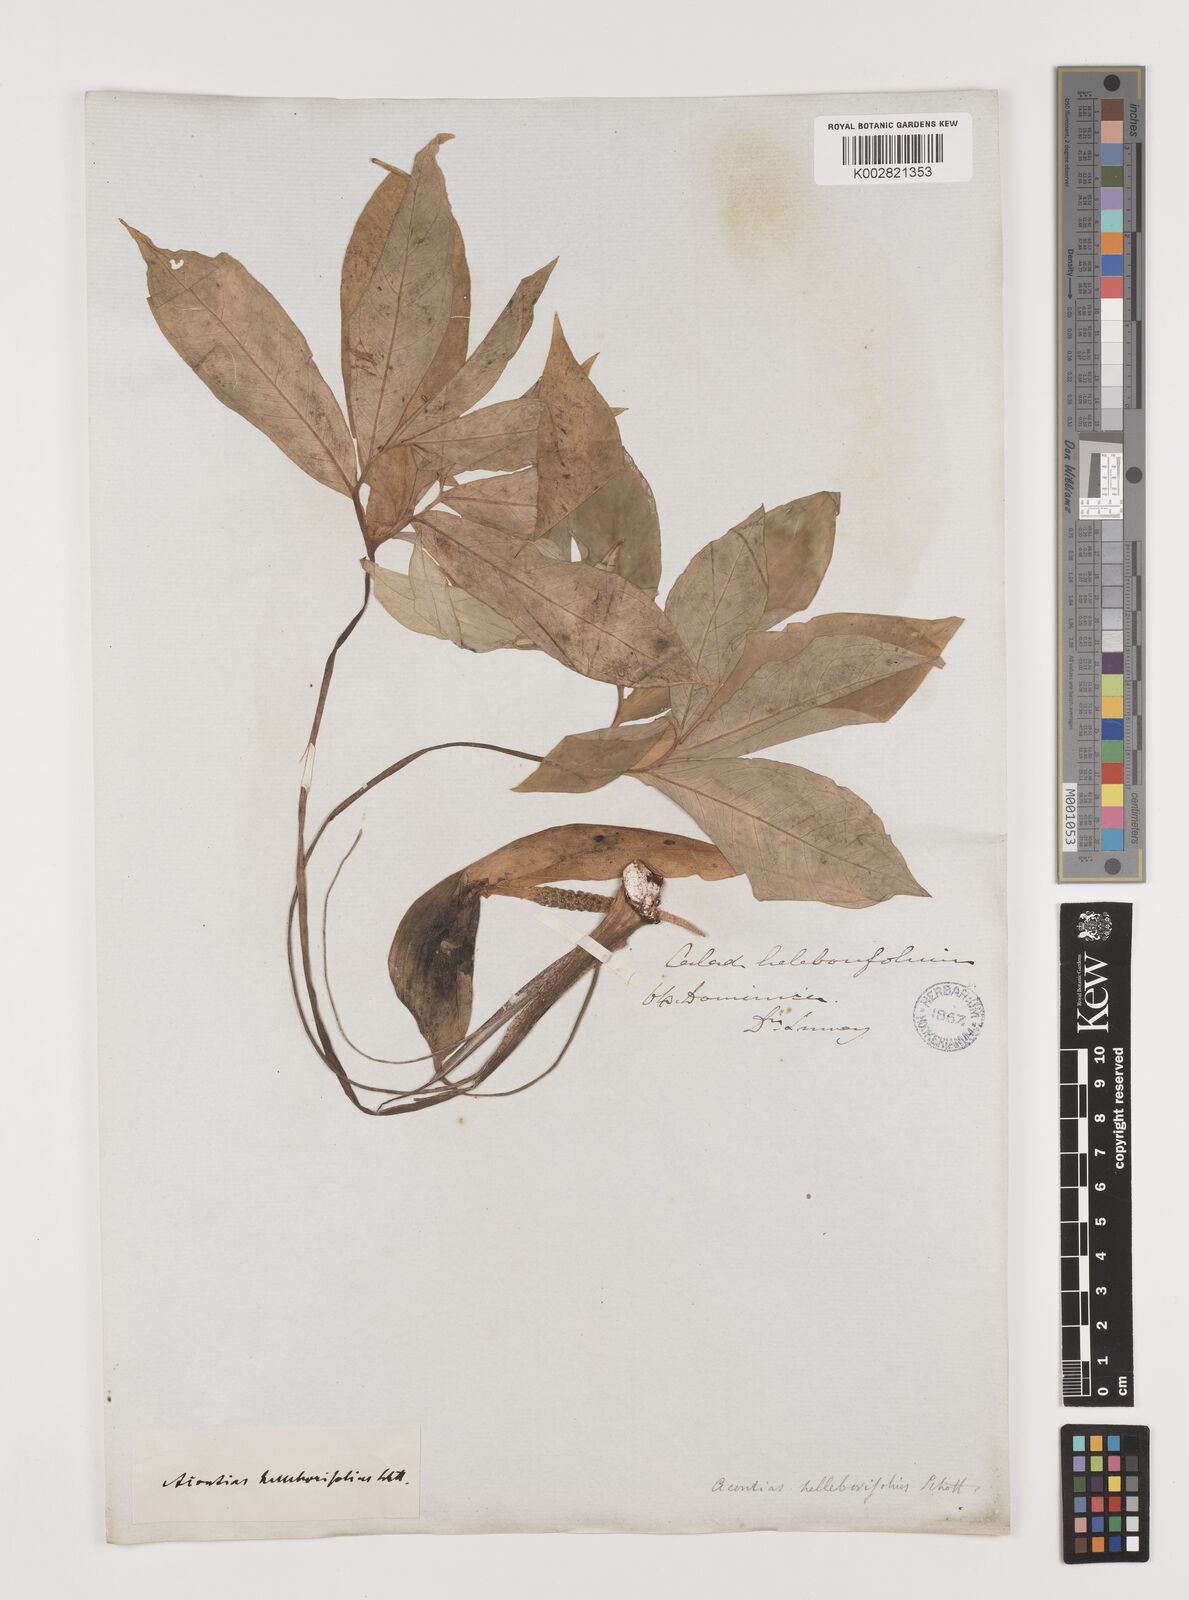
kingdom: Plantae
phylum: Tracheophyta
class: Liliopsida
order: Alismatales
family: Araceae
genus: Xanthosoma
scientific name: Xanthosoma helleborifolium
